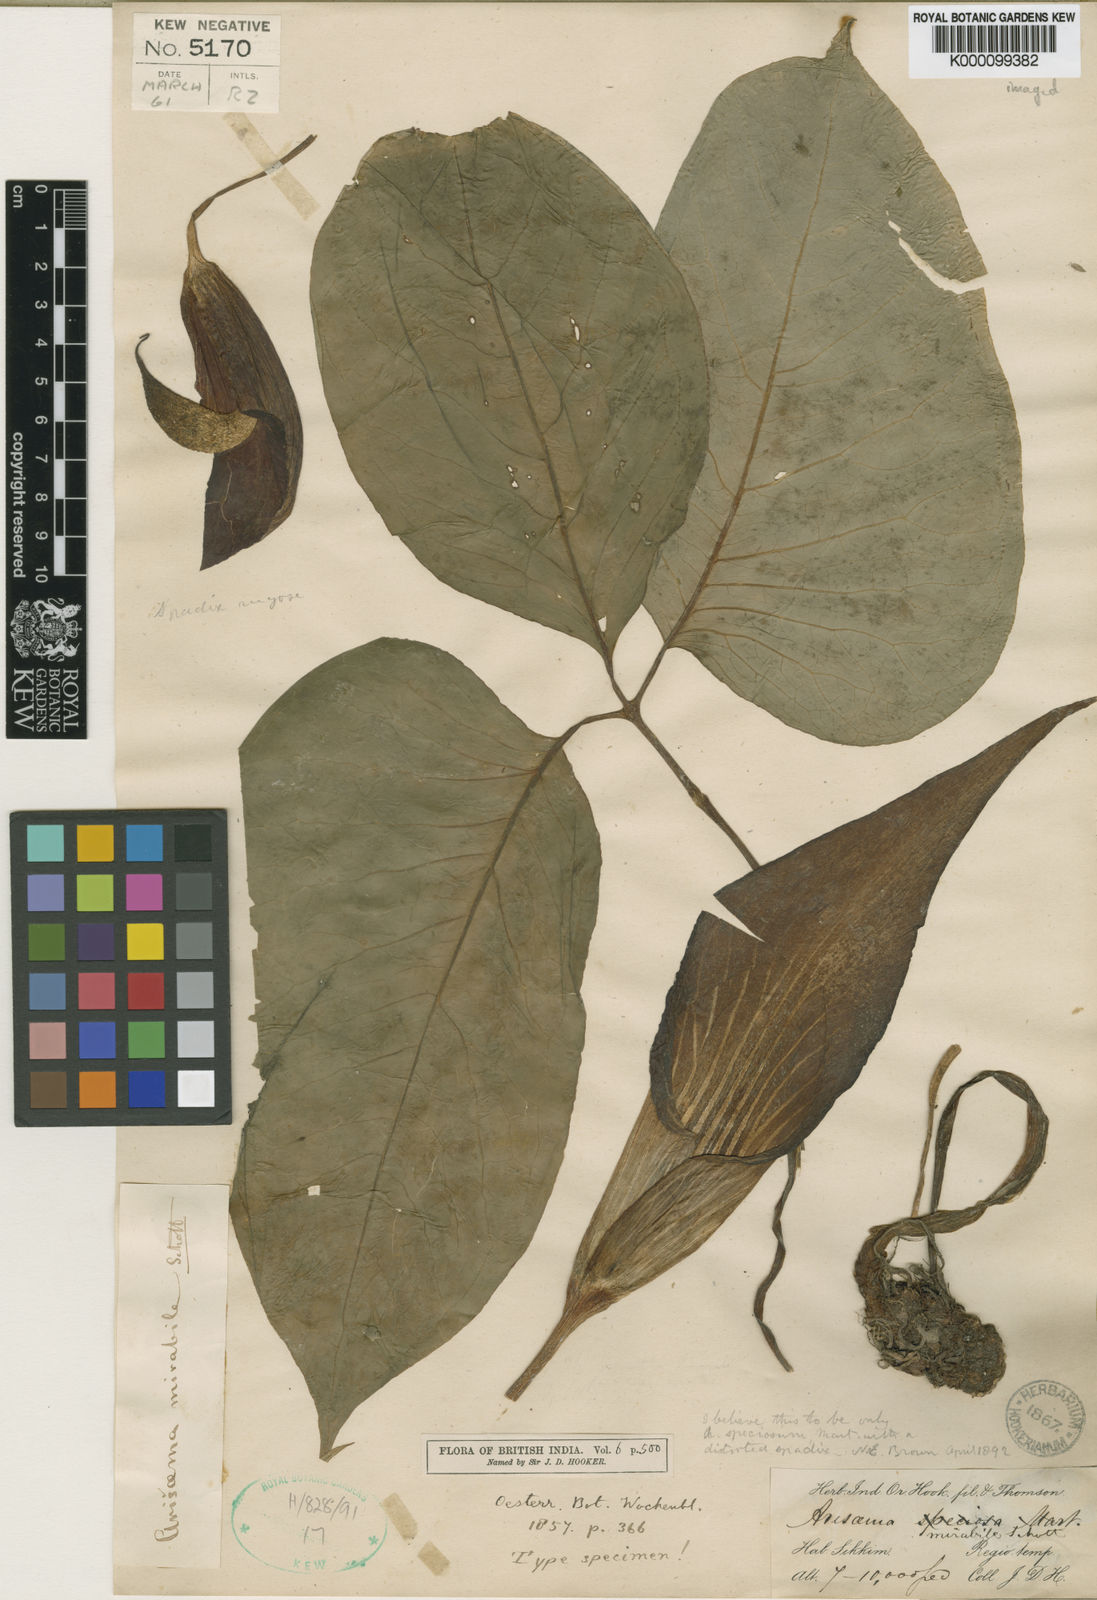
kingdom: Plantae
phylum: Tracheophyta
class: Liliopsida
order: Alismatales
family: Araceae
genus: Arisaema
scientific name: Arisaema speciosum
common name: Showy cobra-lily
